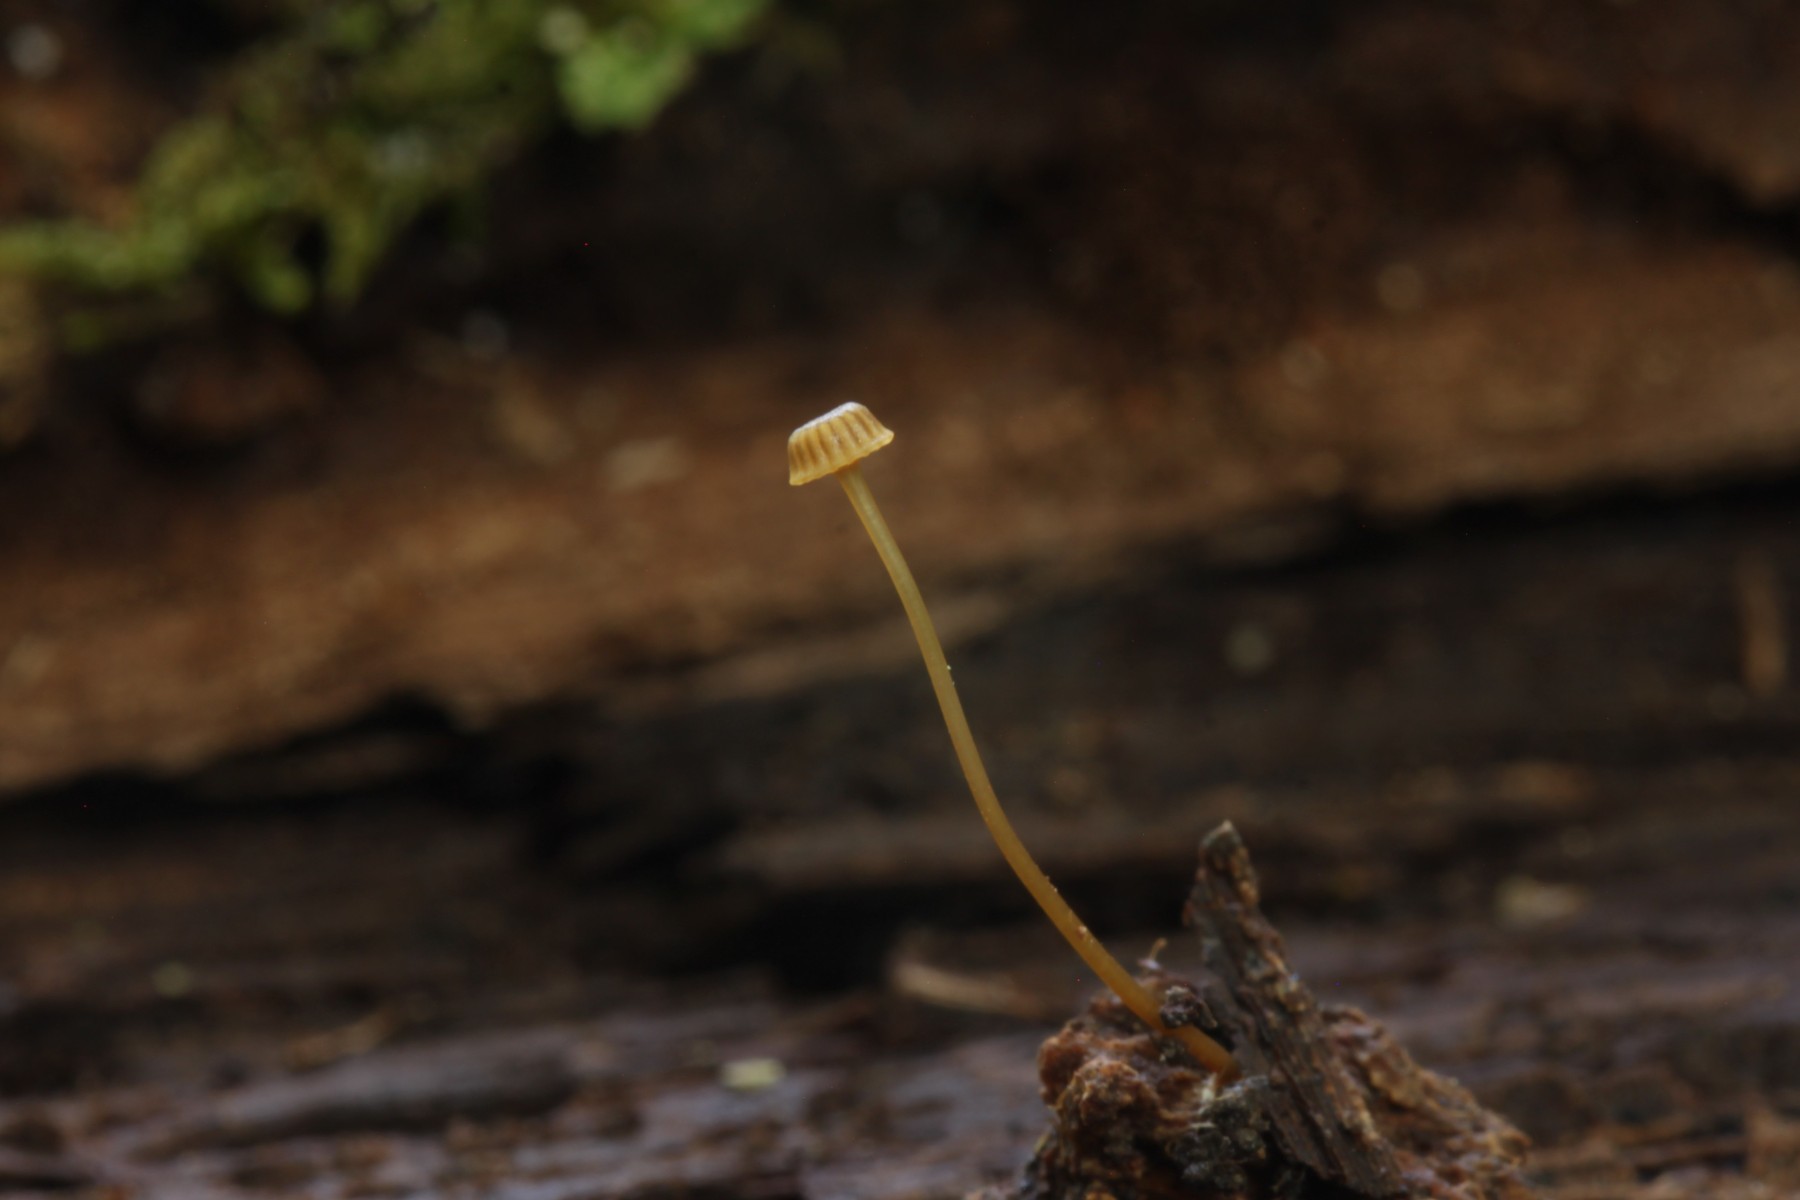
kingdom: Fungi
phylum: Basidiomycota
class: Agaricomycetes
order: Agaricales
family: Mycenaceae
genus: Mycena
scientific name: Mycena picta
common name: kantet huesvamp
